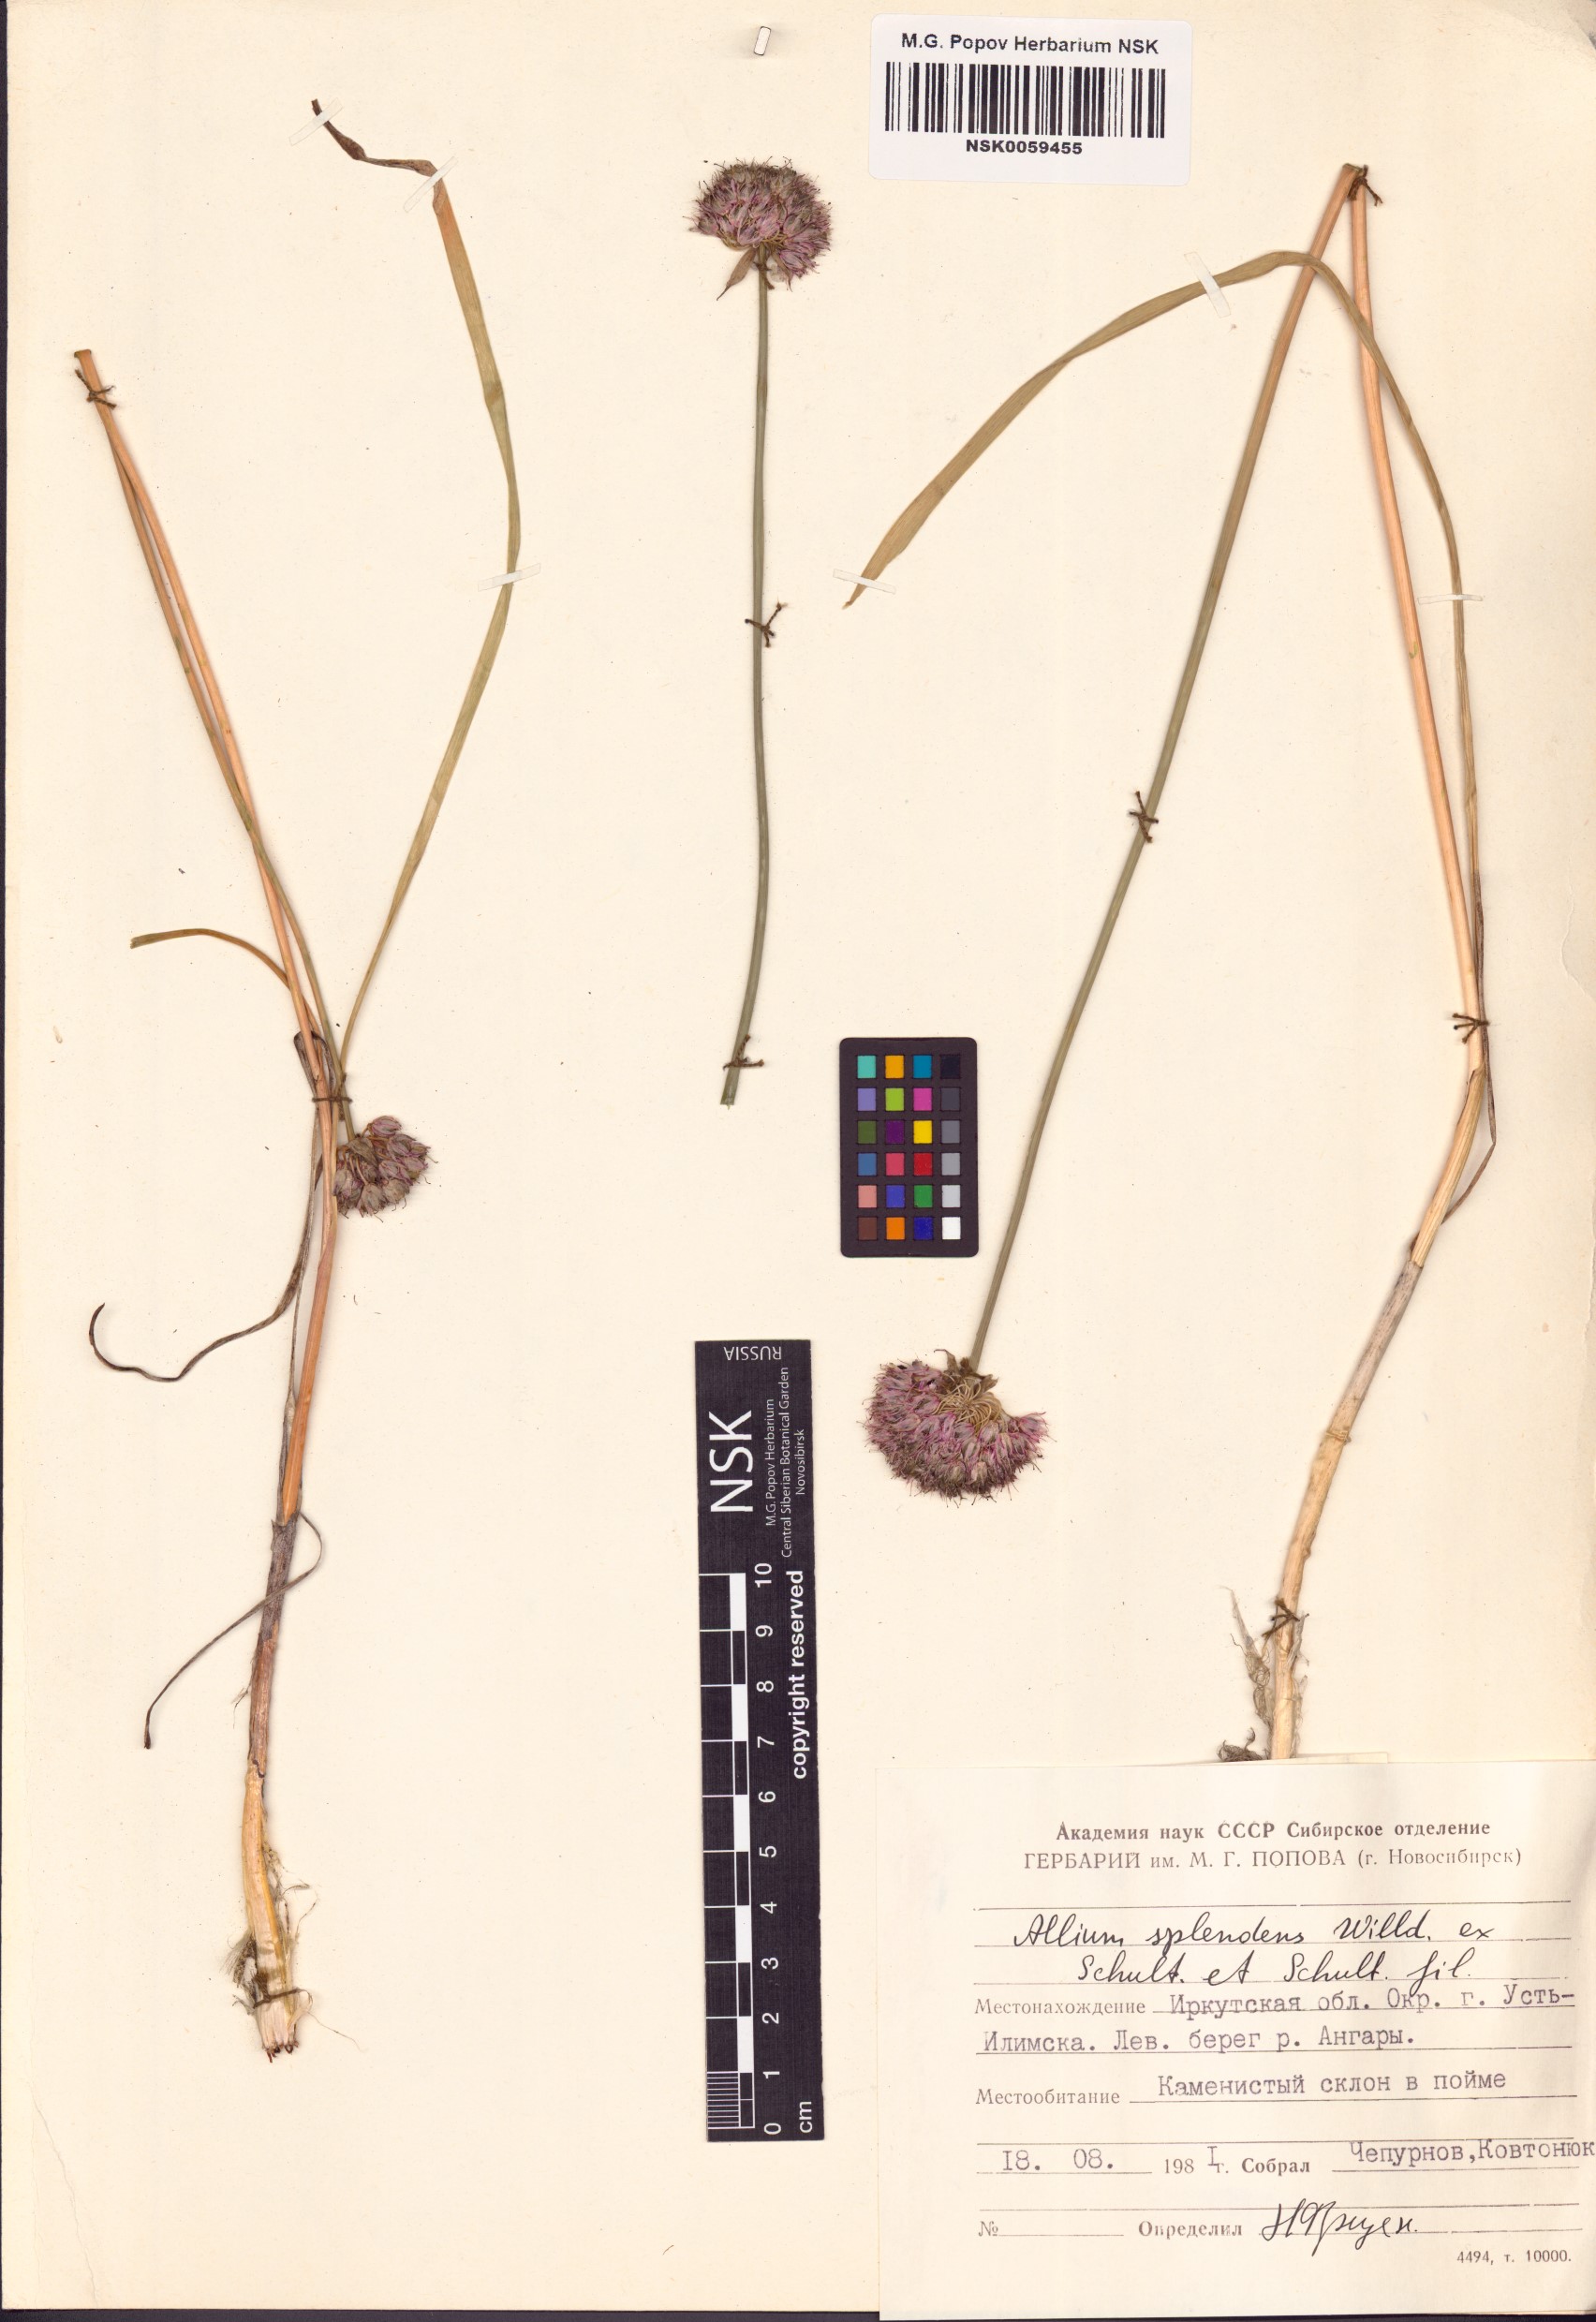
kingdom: Plantae
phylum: Tracheophyta
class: Liliopsida
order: Asparagales
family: Amaryllidaceae
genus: Allium
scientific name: Allium splendens
